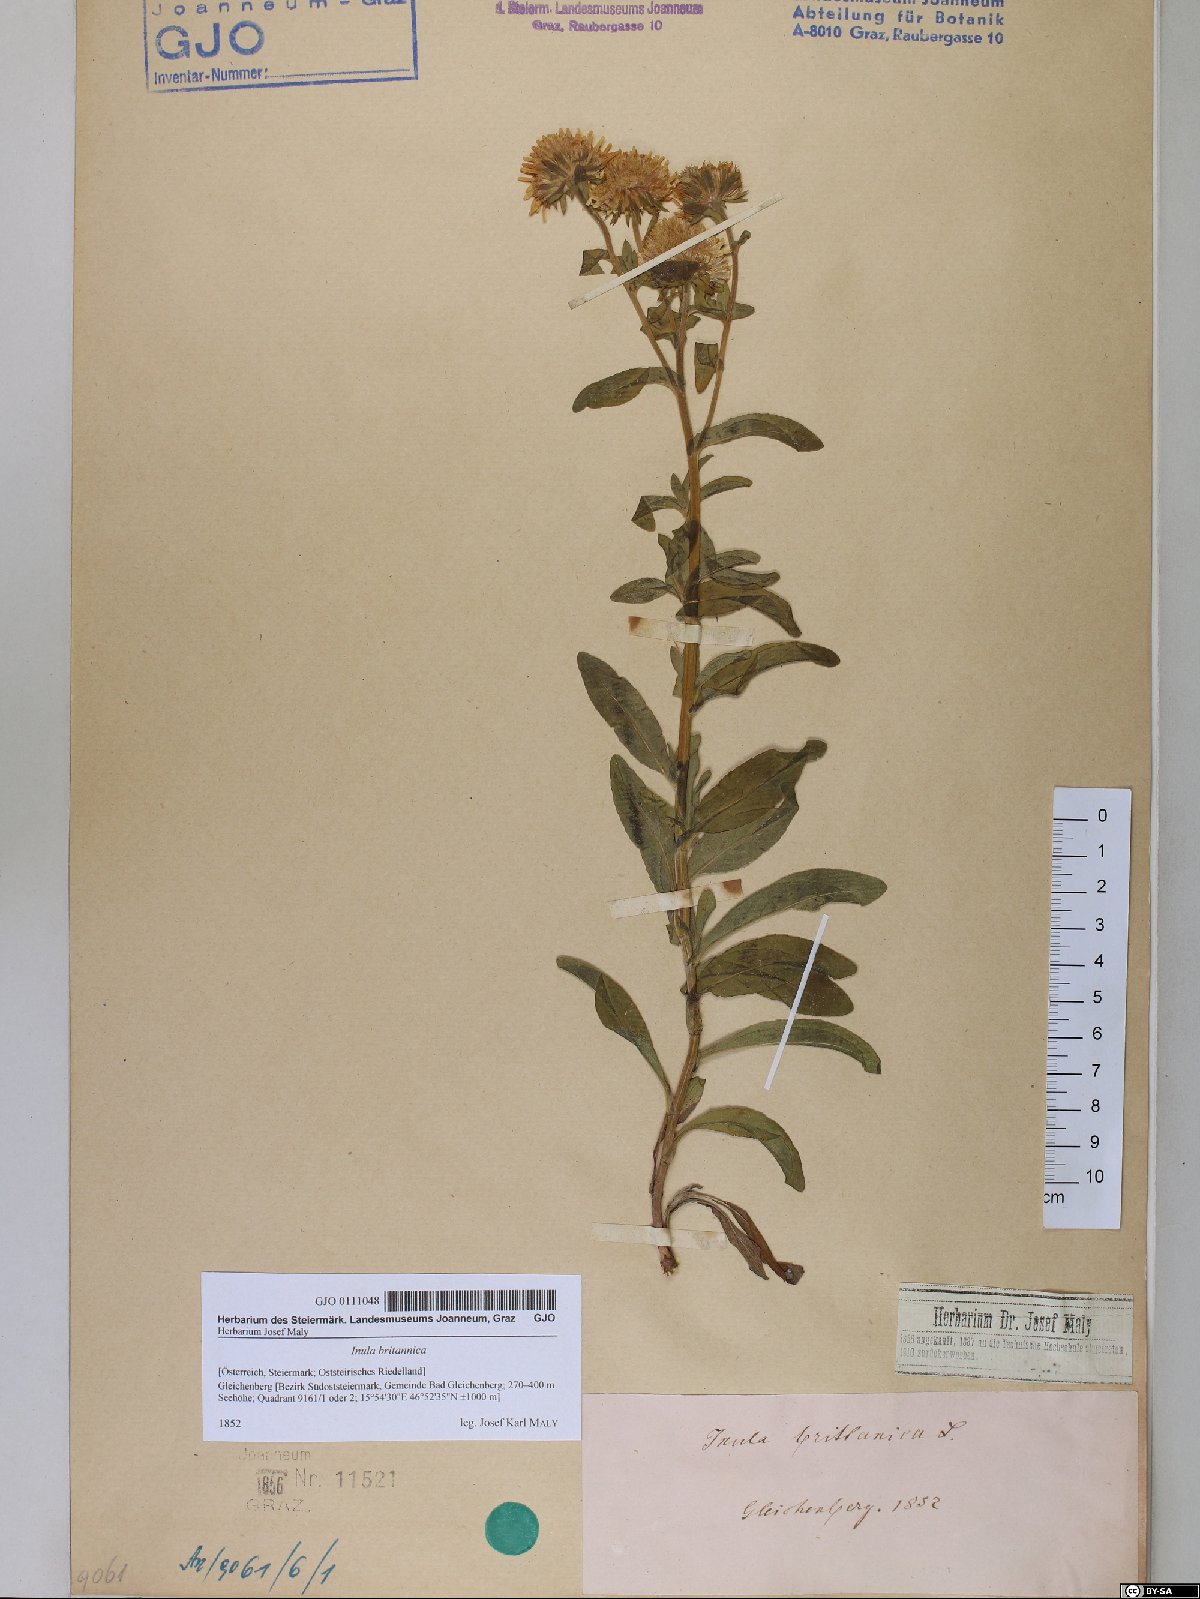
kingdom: Plantae
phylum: Tracheophyta
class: Magnoliopsida
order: Asterales
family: Asteraceae
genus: Pentanema
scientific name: Pentanema britannicum
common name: British elecampane
